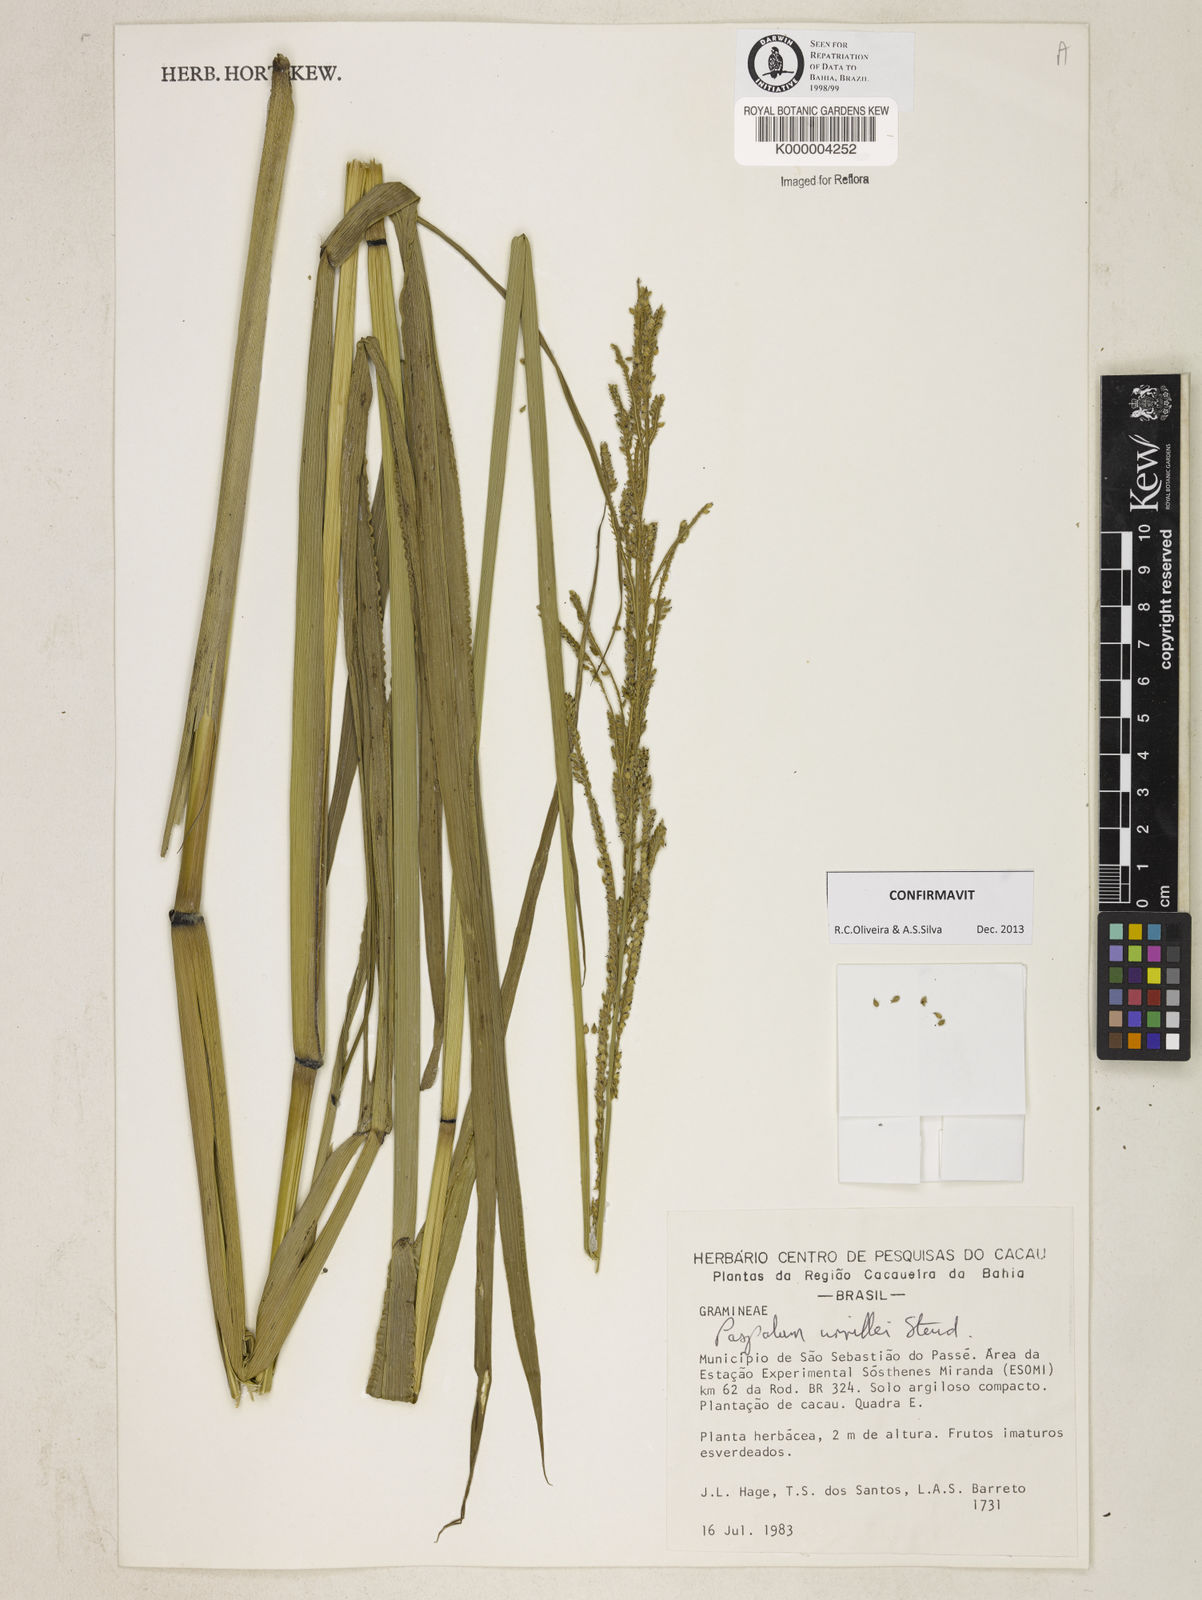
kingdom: Plantae
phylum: Tracheophyta
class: Liliopsida
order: Poales
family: Poaceae
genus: Paspalum
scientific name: Paspalum urvillei
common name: Vasey's grass
